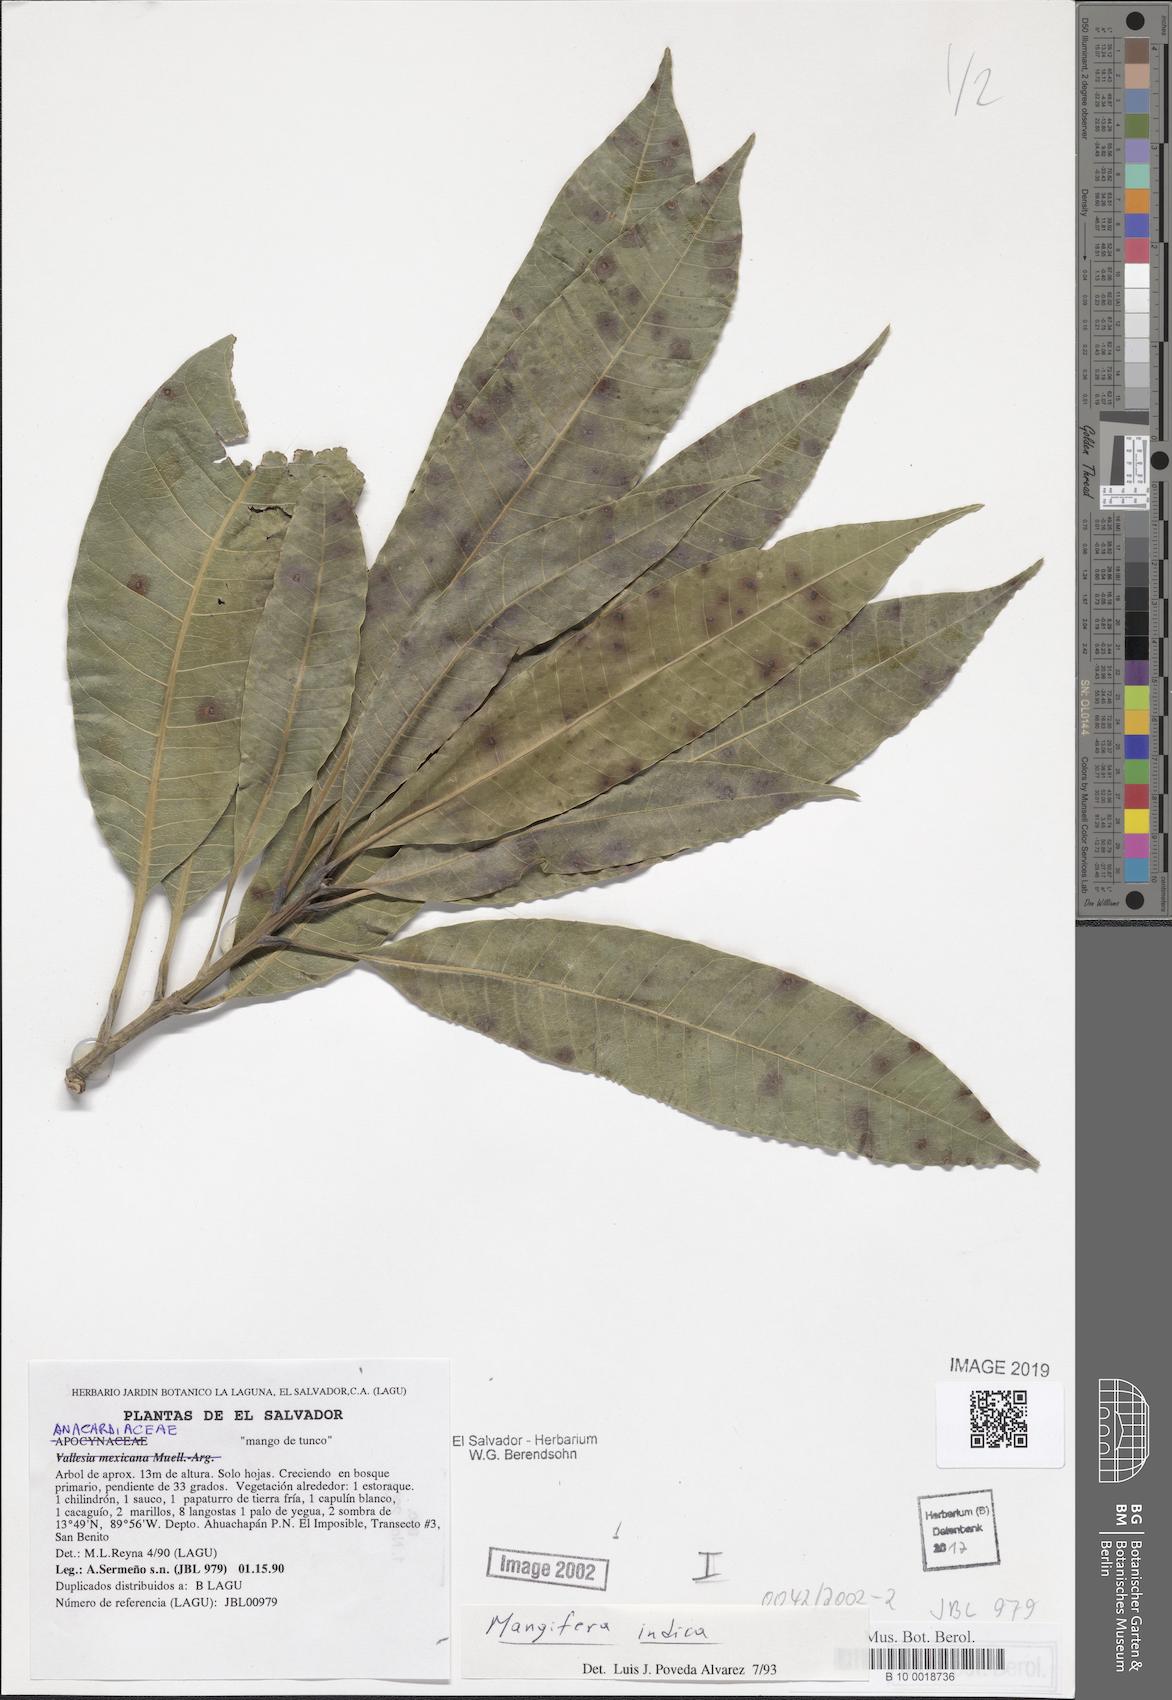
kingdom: Plantae
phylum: Tracheophyta
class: Magnoliopsida
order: Sapindales
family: Anacardiaceae
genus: Mangifera
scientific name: Mangifera indica
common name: Mango
